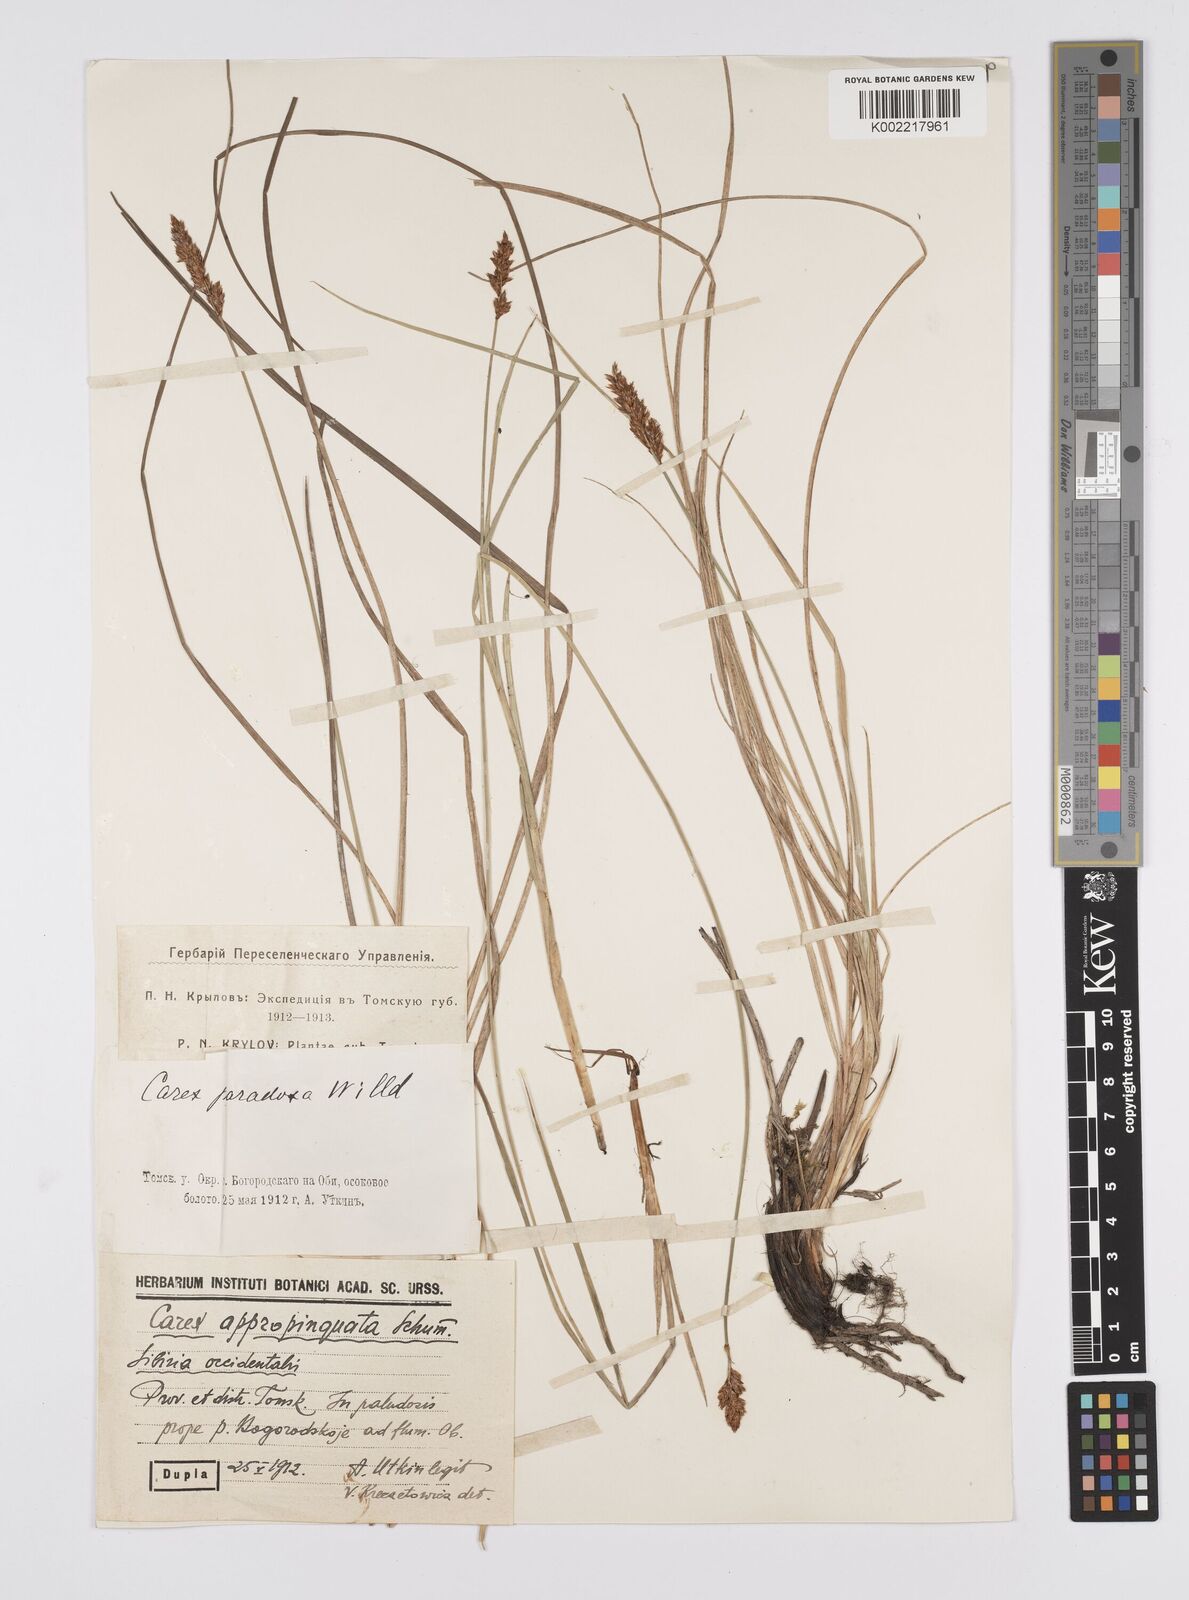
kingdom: Plantae
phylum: Tracheophyta
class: Liliopsida
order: Poales
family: Cyperaceae
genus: Carex
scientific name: Carex appropinquata
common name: Fibrous tussock-sedge
